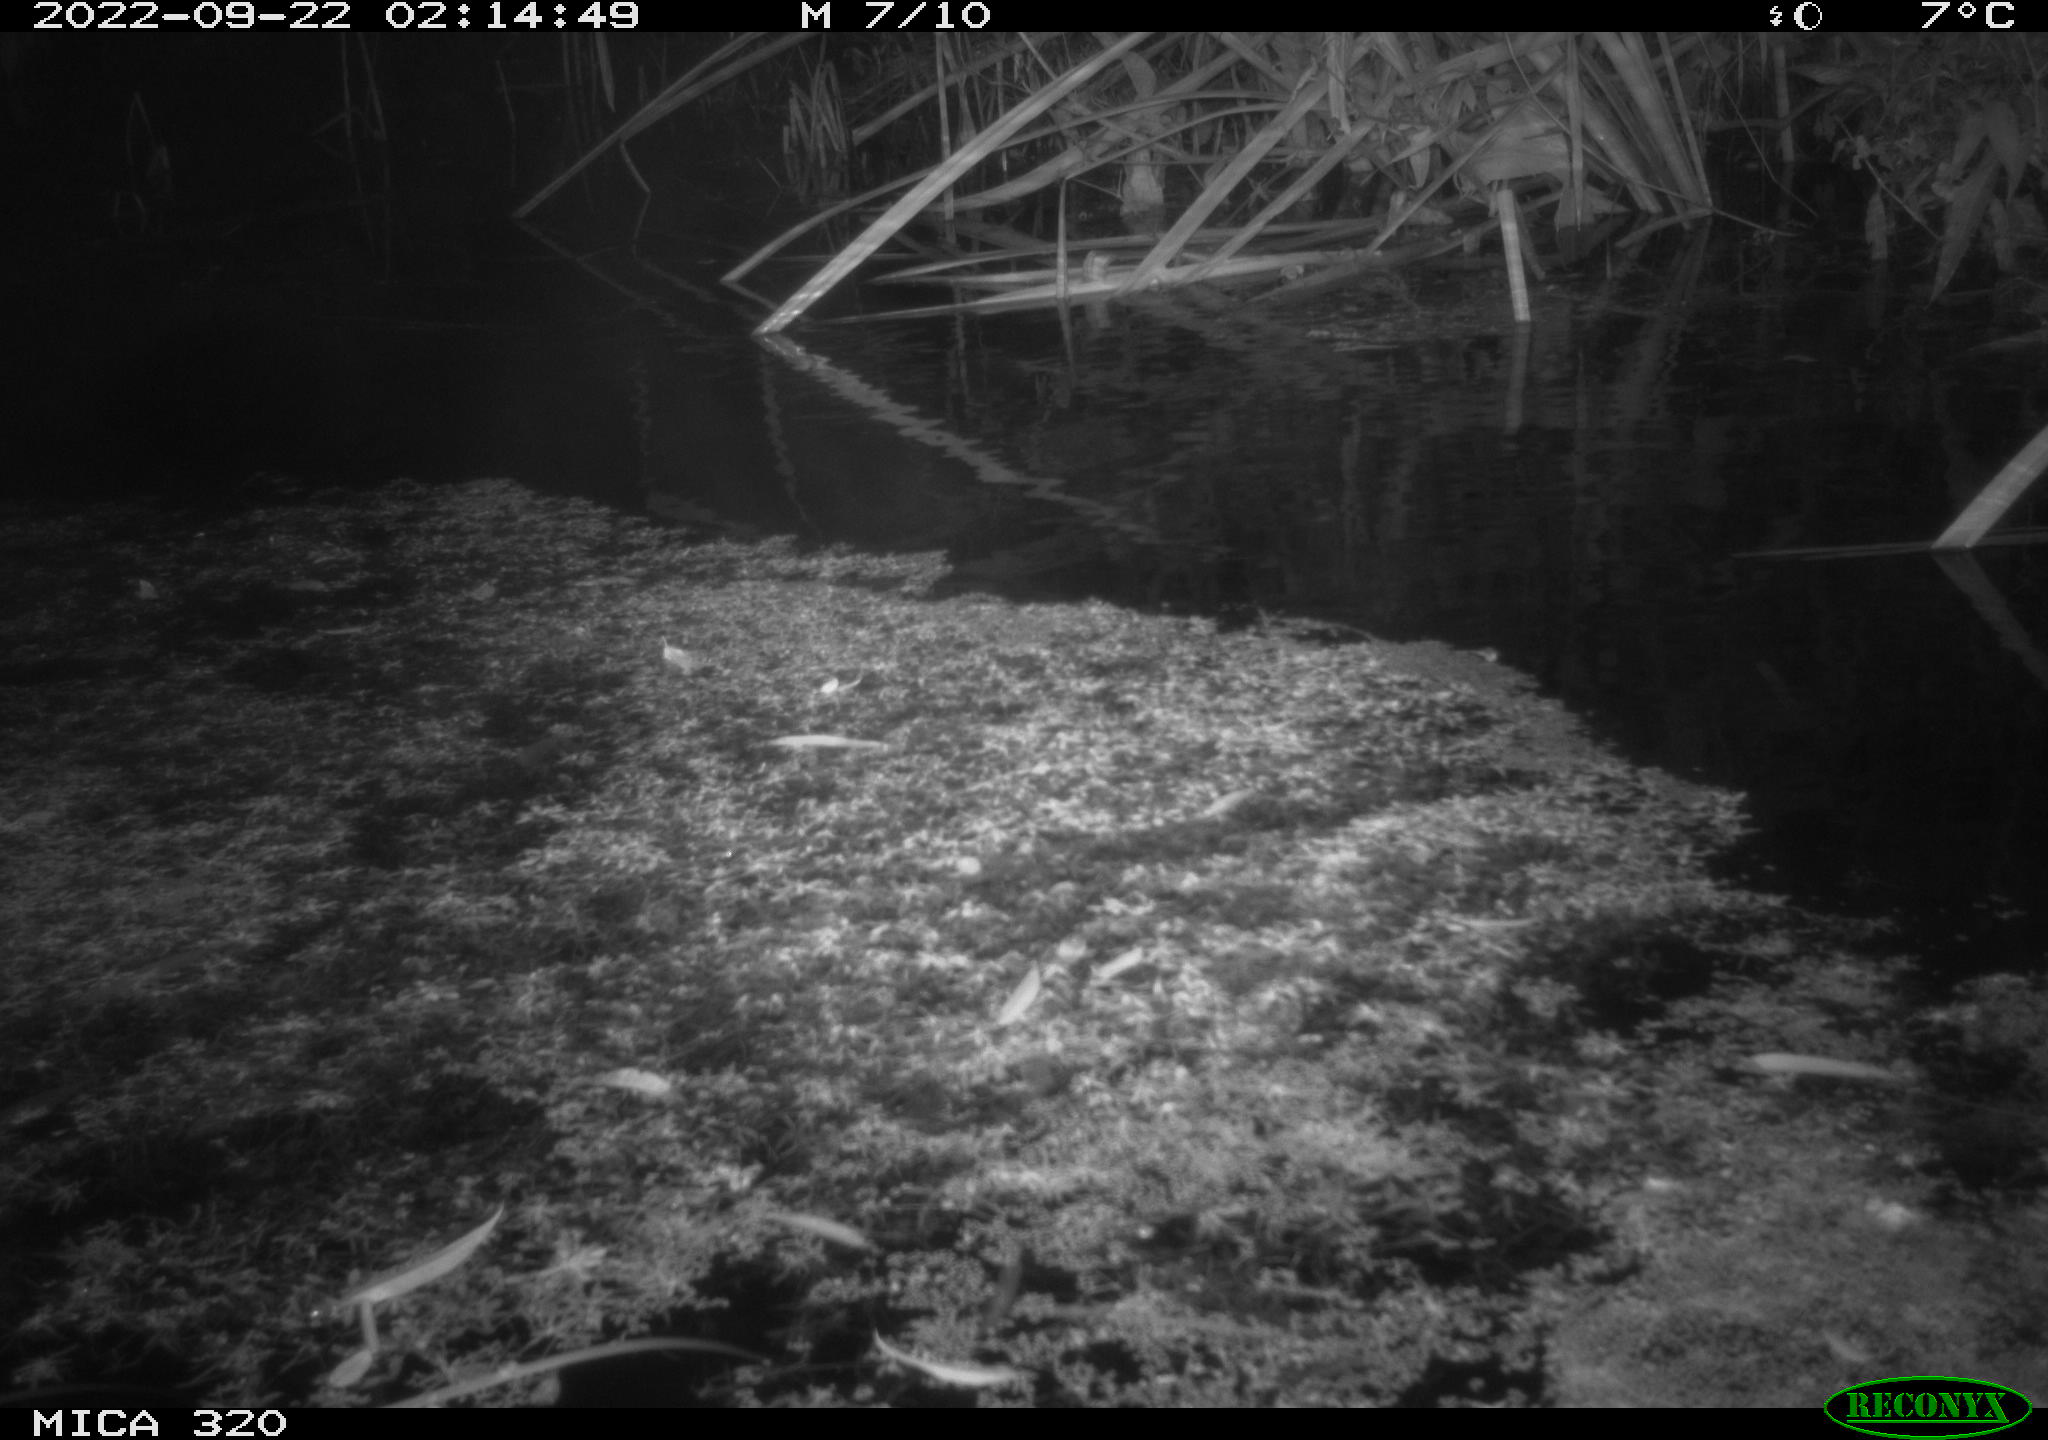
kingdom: Animalia
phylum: Chordata
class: Mammalia
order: Rodentia
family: Muridae
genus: Rattus
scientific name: Rattus norvegicus
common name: Brown rat
